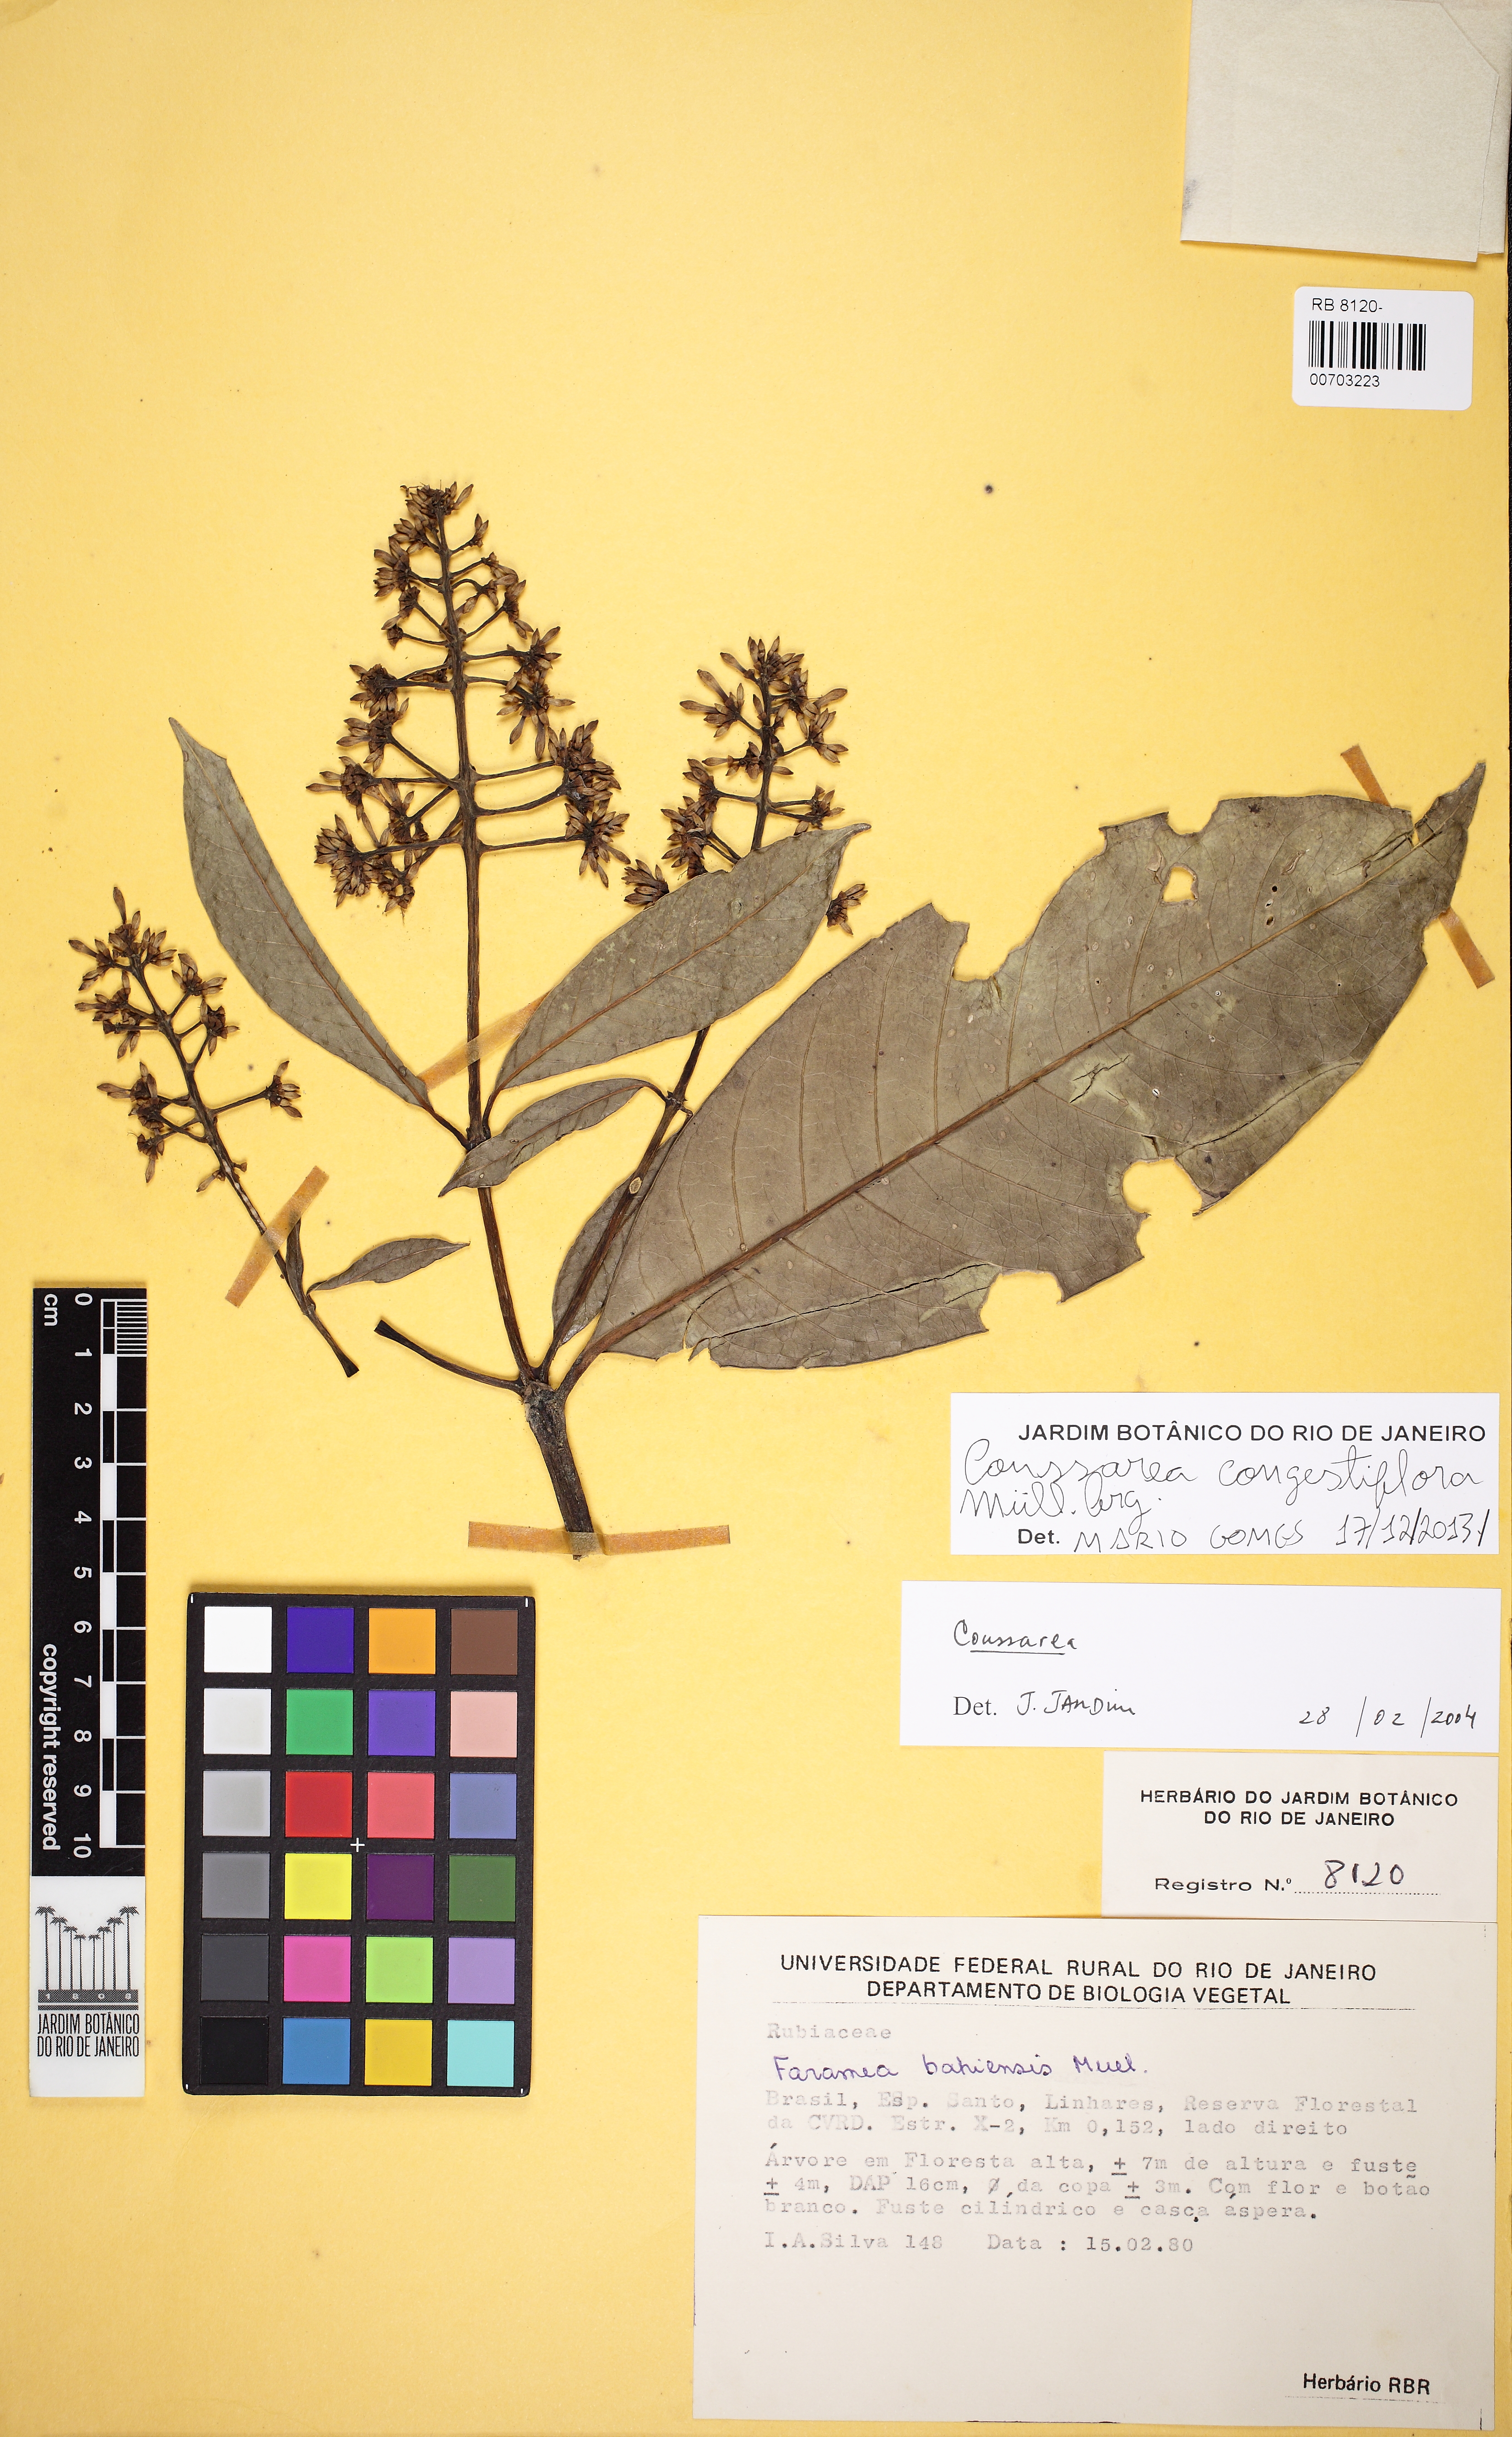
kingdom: Plantae
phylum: Tracheophyta
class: Magnoliopsida
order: Gentianales
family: Rubiaceae
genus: Coussarea
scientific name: Coussarea congestiflora
